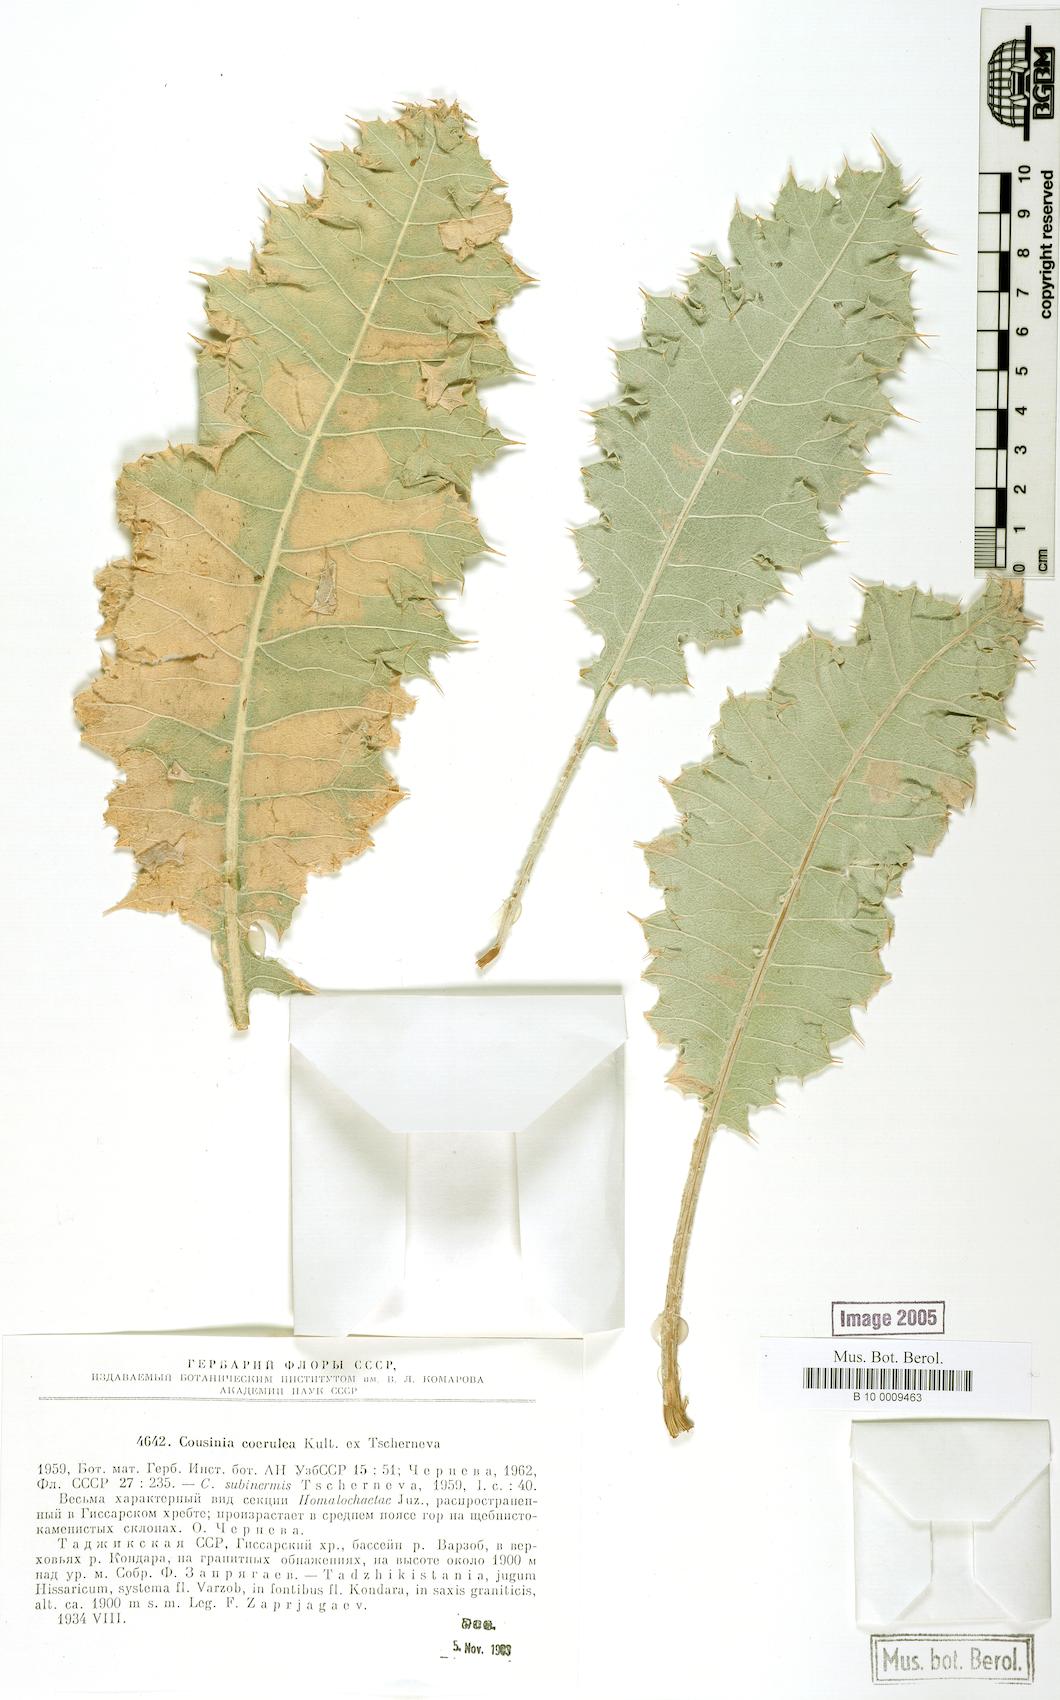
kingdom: Plantae
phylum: Tracheophyta
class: Magnoliopsida
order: Asterales
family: Asteraceae
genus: Cousinia
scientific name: Cousinia coerulea
